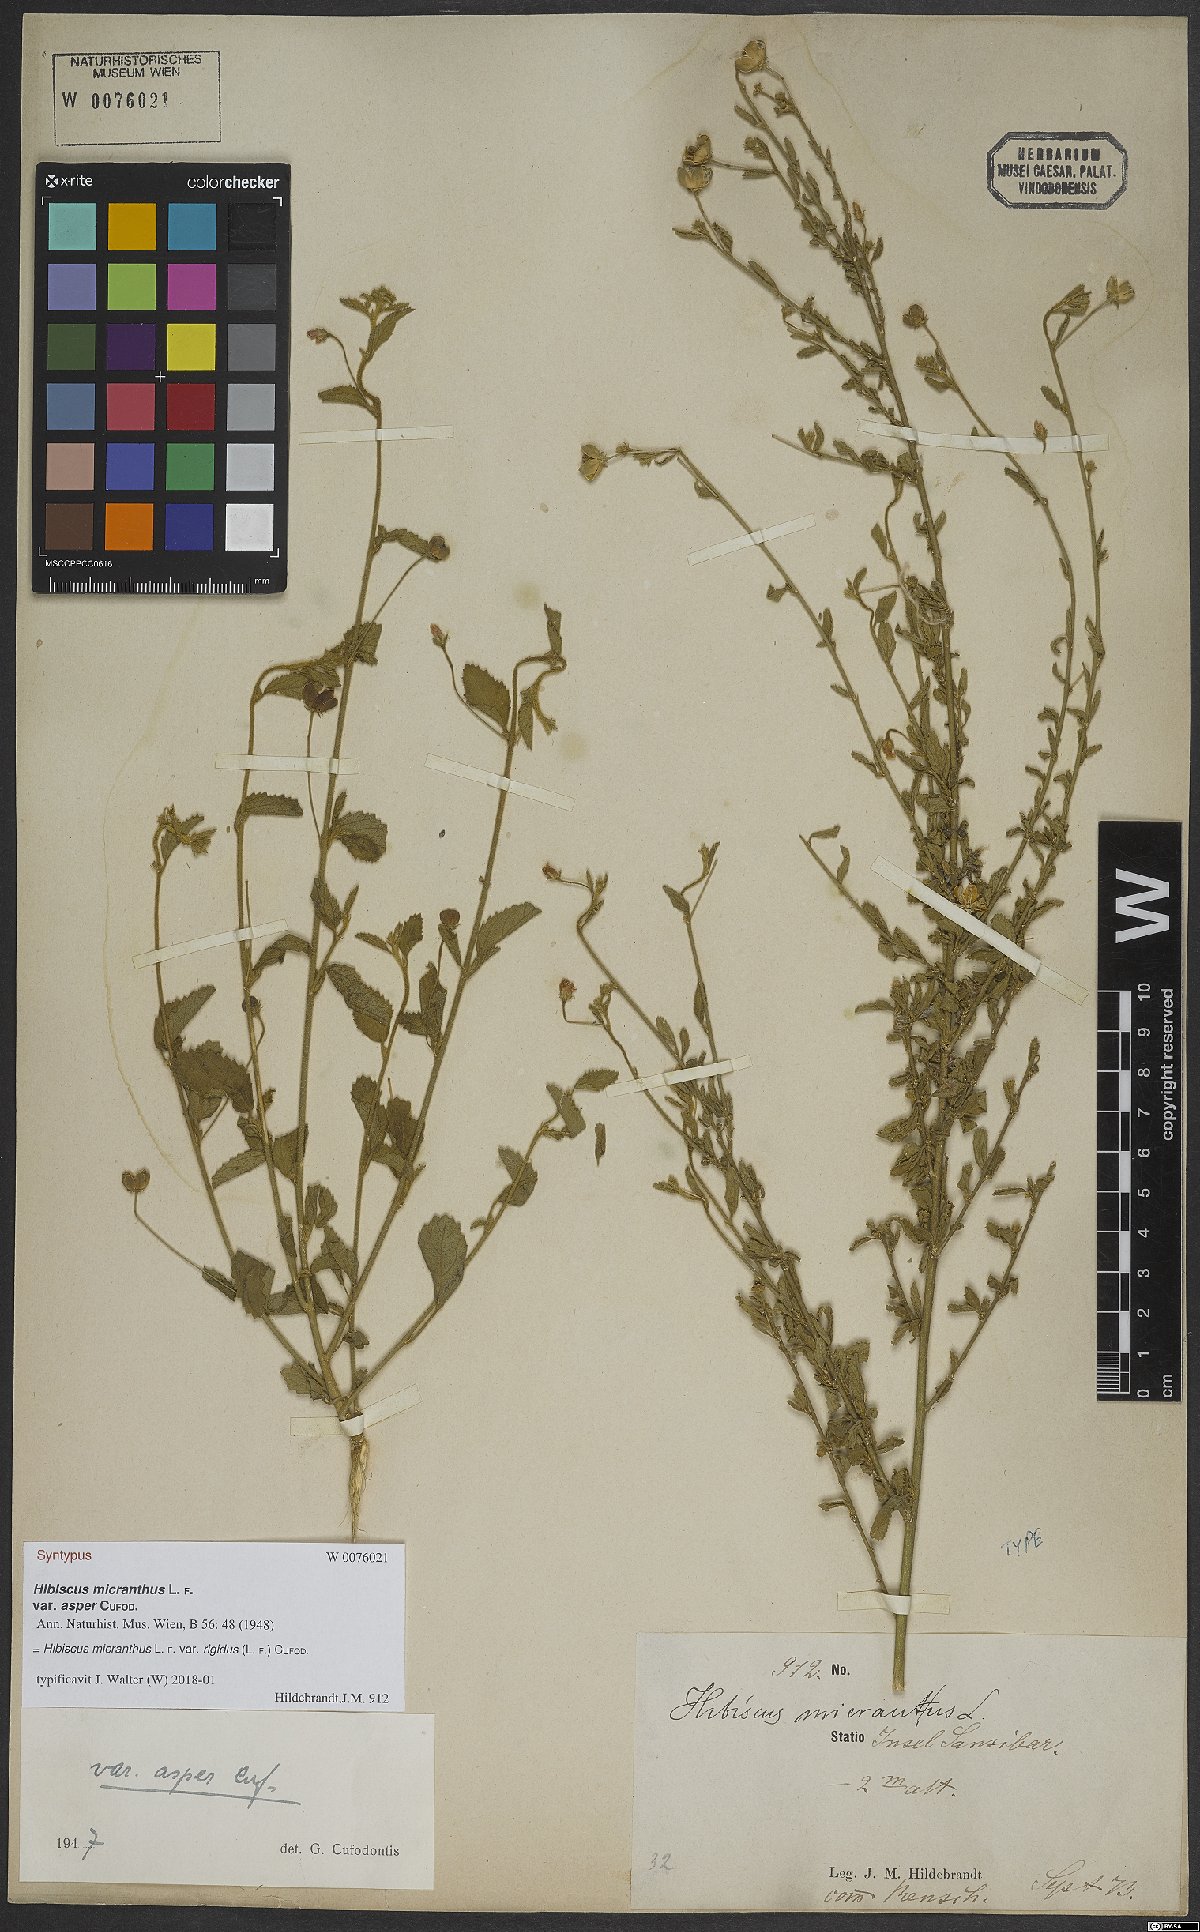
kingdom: Plantae
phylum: Tracheophyta
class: Magnoliopsida
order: Malvales
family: Malvaceae
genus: Hibiscus
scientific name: Hibiscus micranthus
